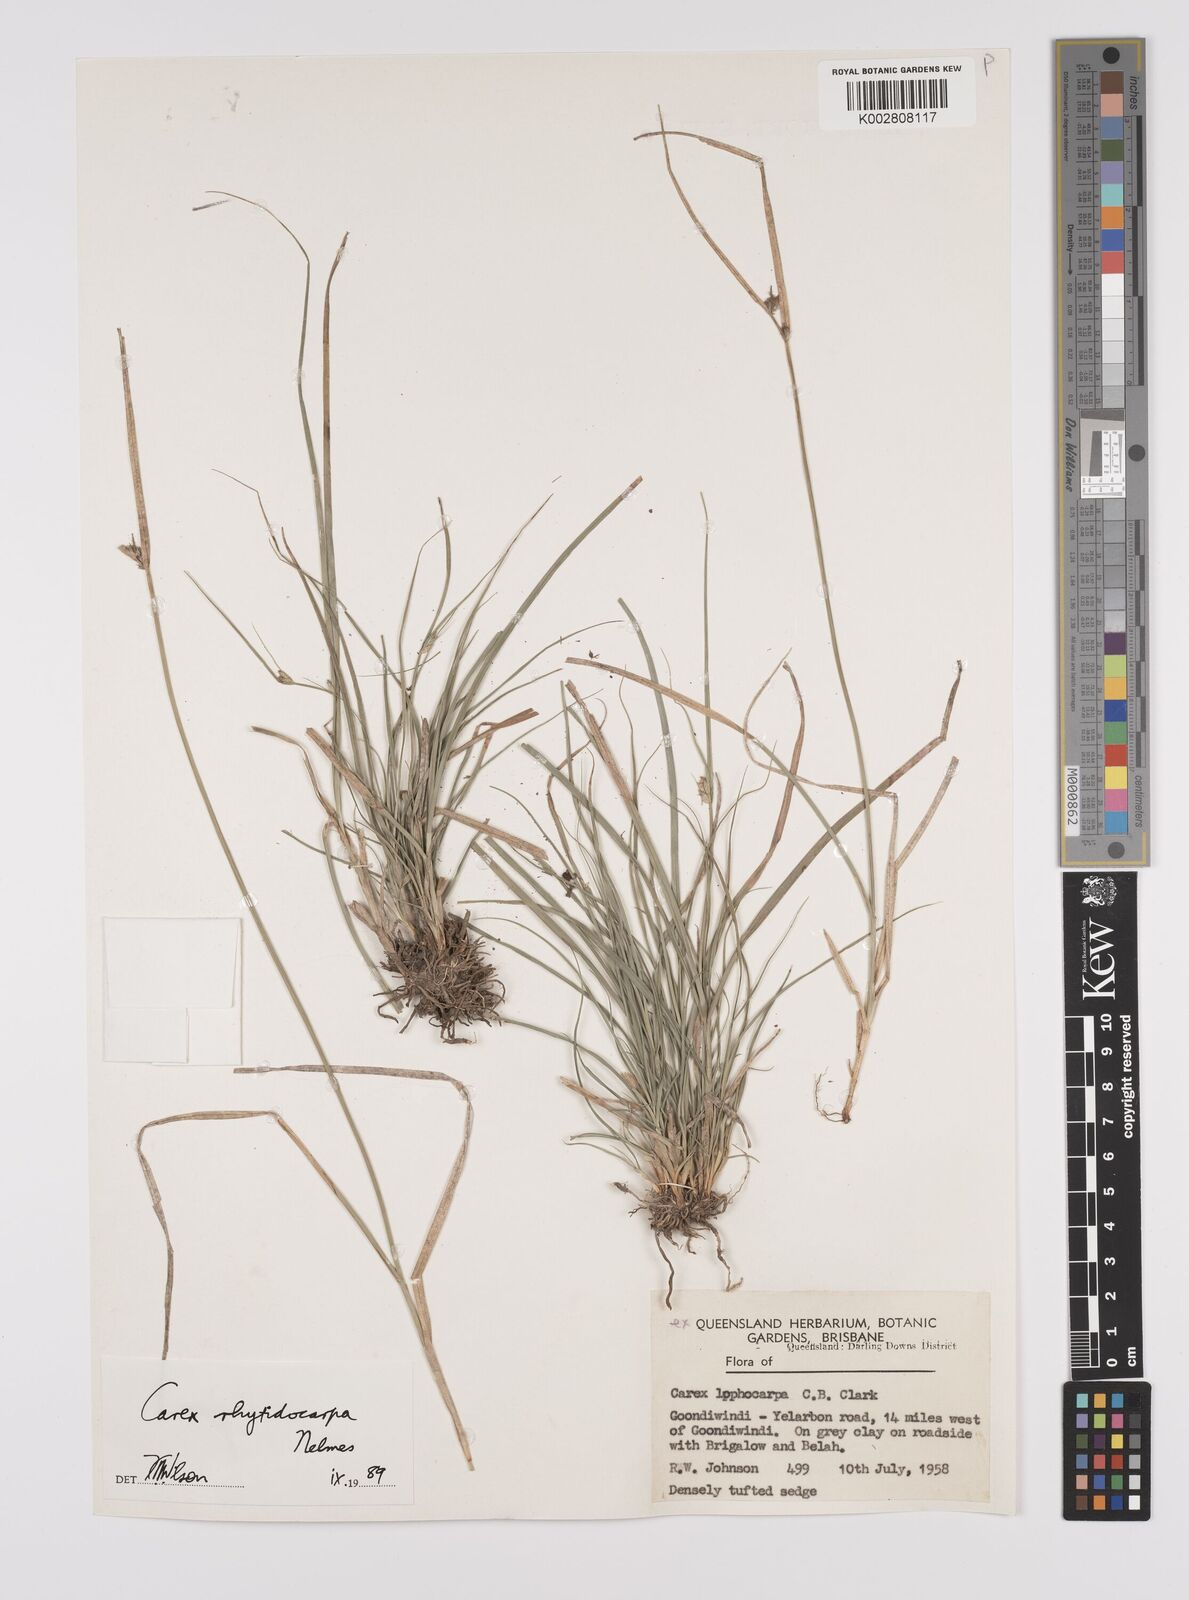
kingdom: Plantae
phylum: Tracheophyta
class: Liliopsida
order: Poales
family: Cyperaceae
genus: Carex
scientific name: Carex inversa
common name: Knob sedge
